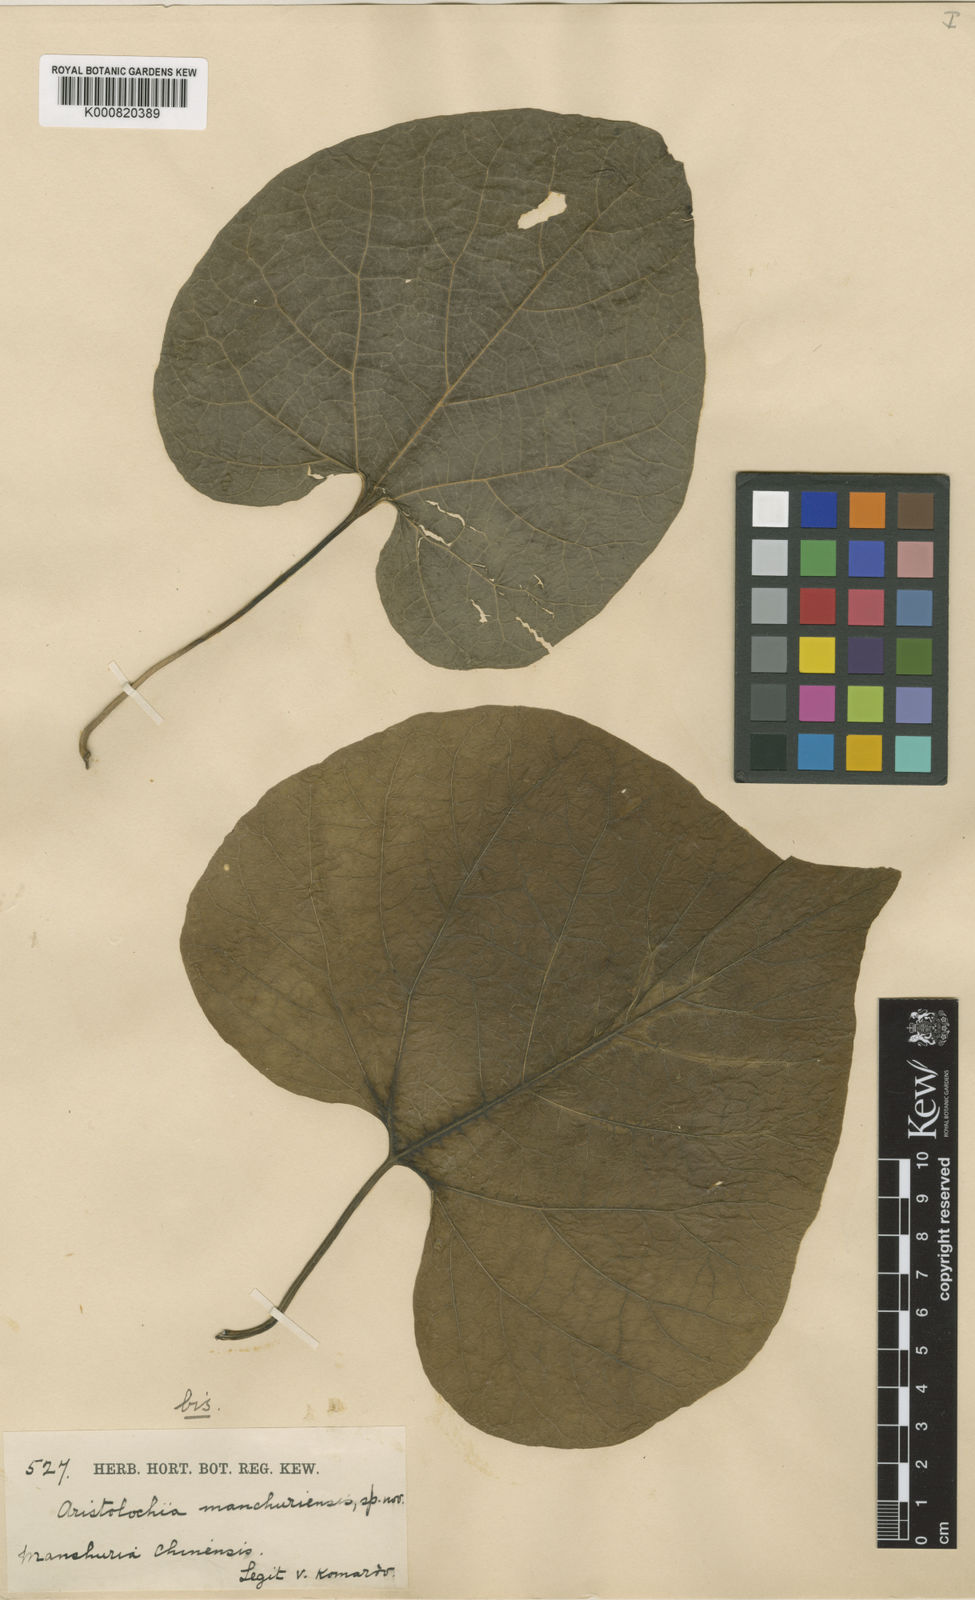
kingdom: Plantae
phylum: Tracheophyta
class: Magnoliopsida
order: Piperales
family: Aristolochiaceae
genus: Isotrema
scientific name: Isotrema
